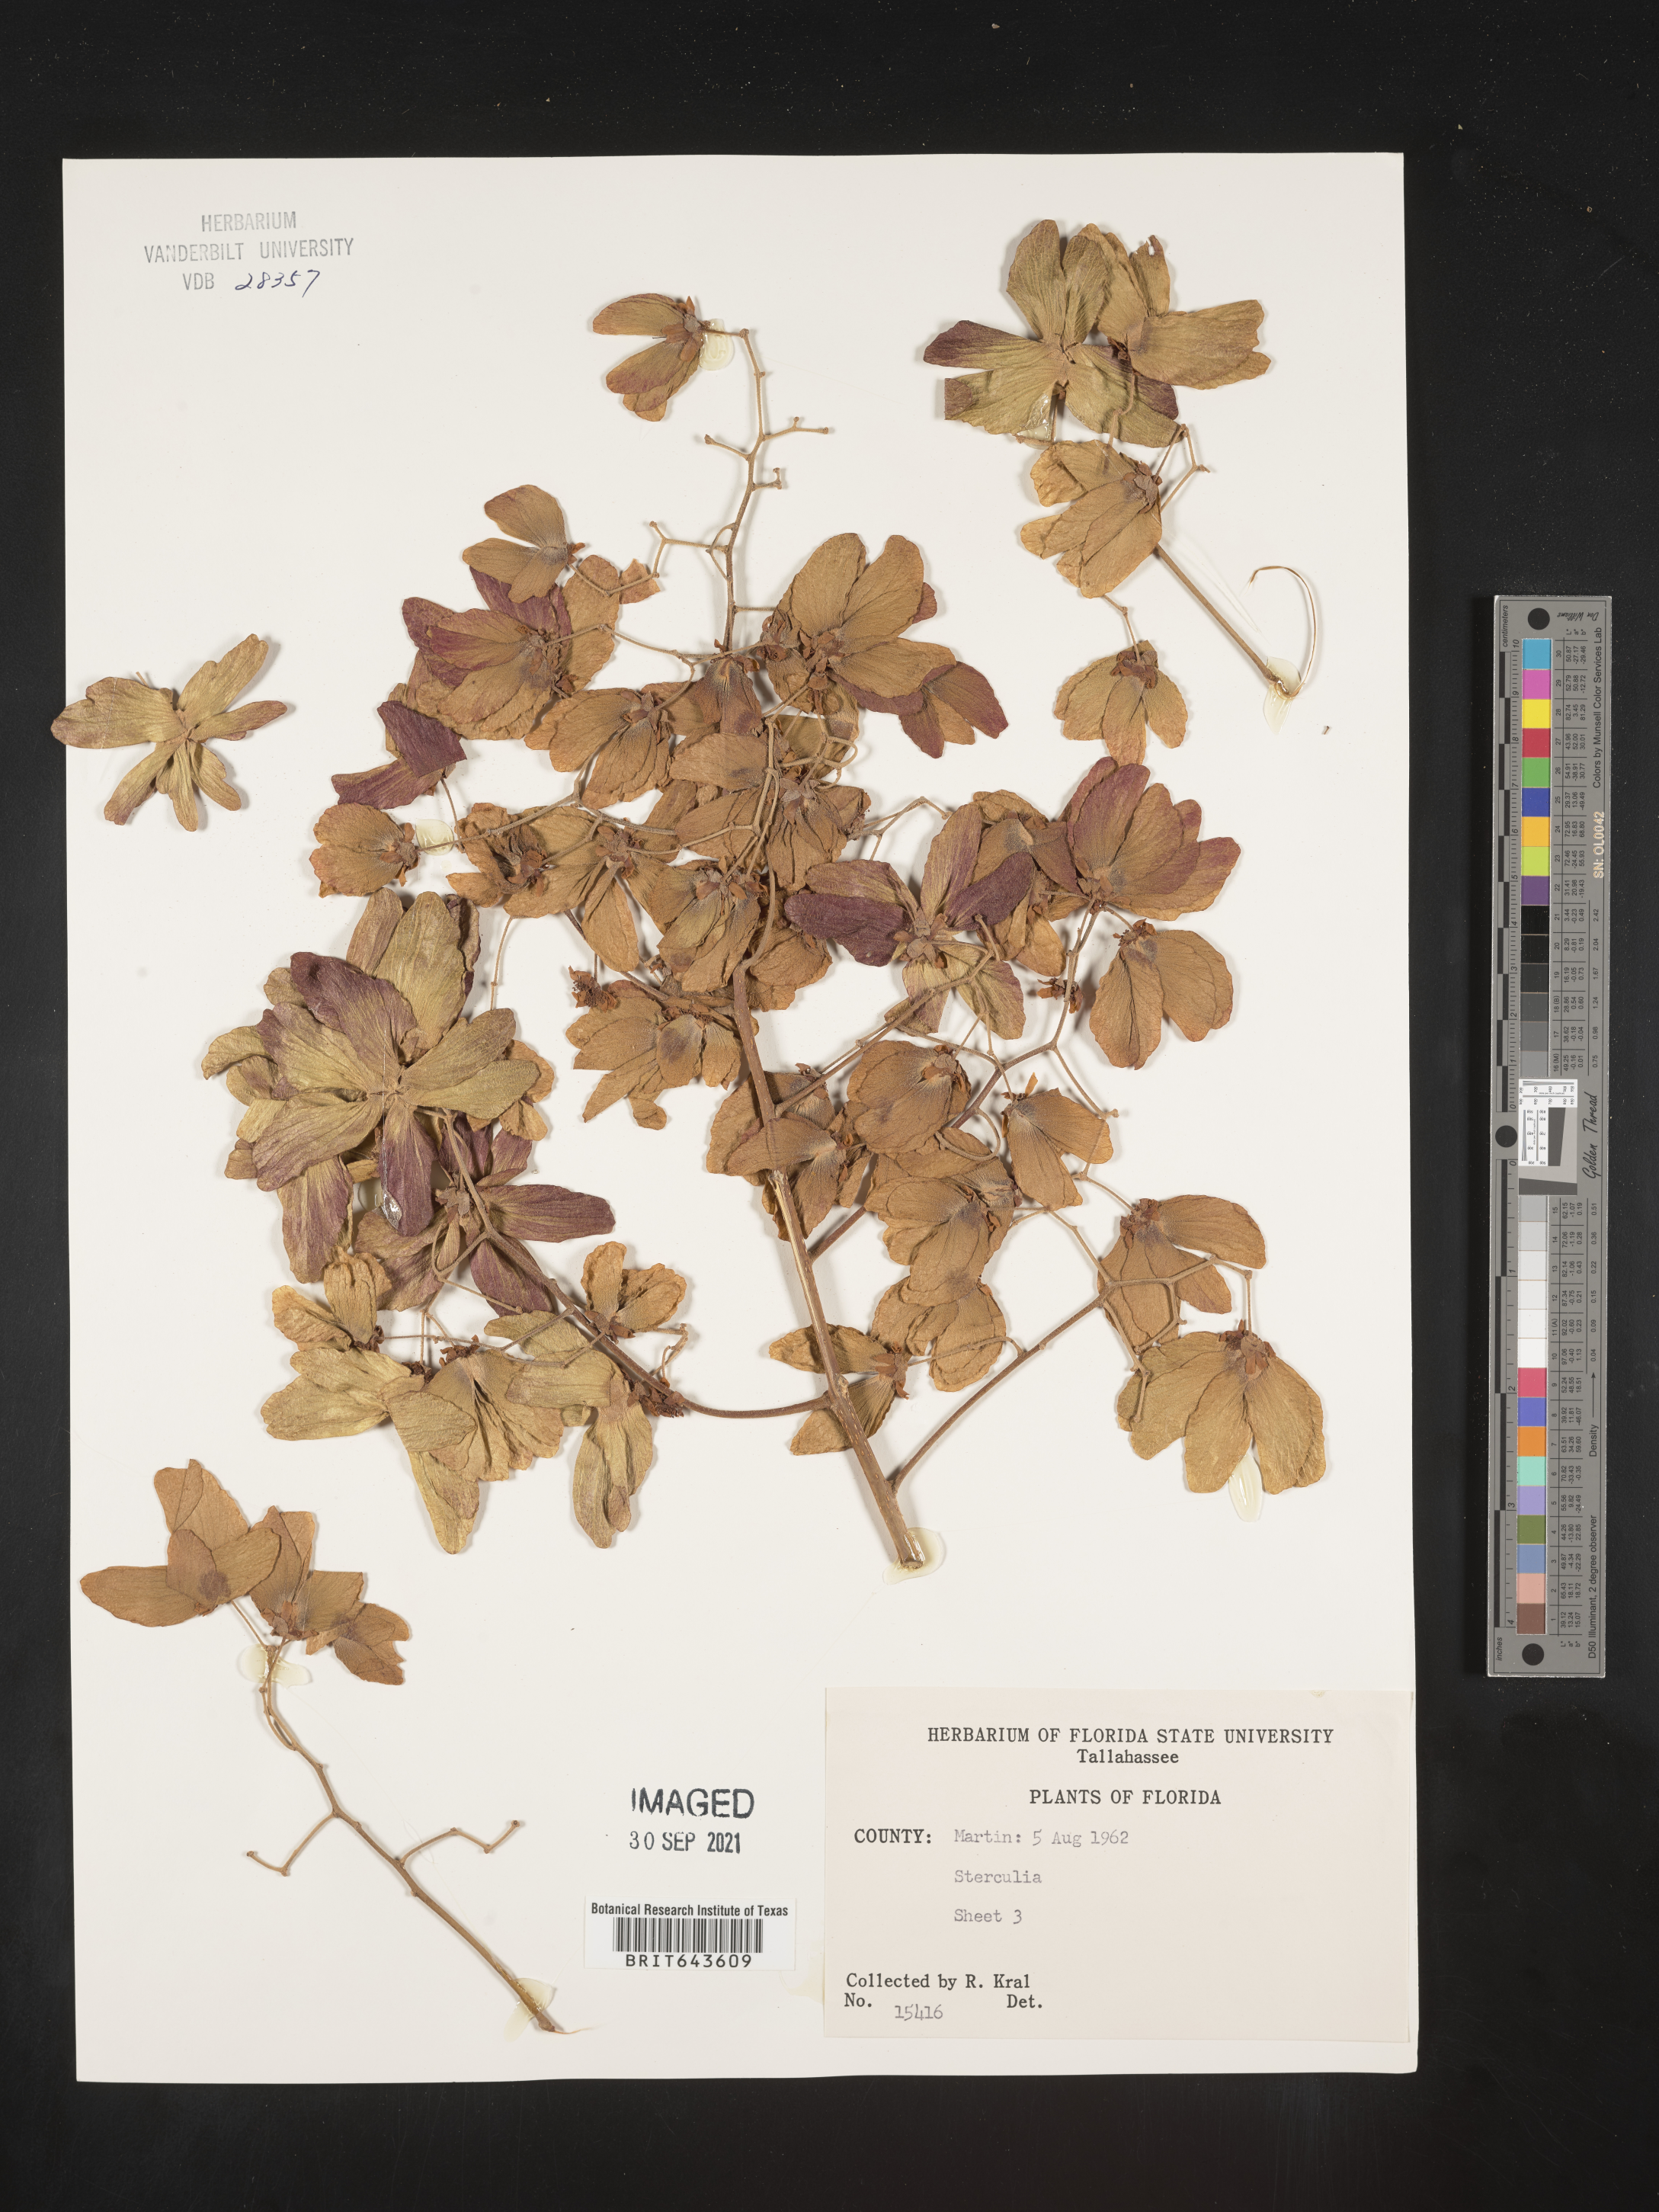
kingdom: Plantae
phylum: Tracheophyta
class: Magnoliopsida
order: Malvales
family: Malvaceae
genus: Sterculia
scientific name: Sterculia
